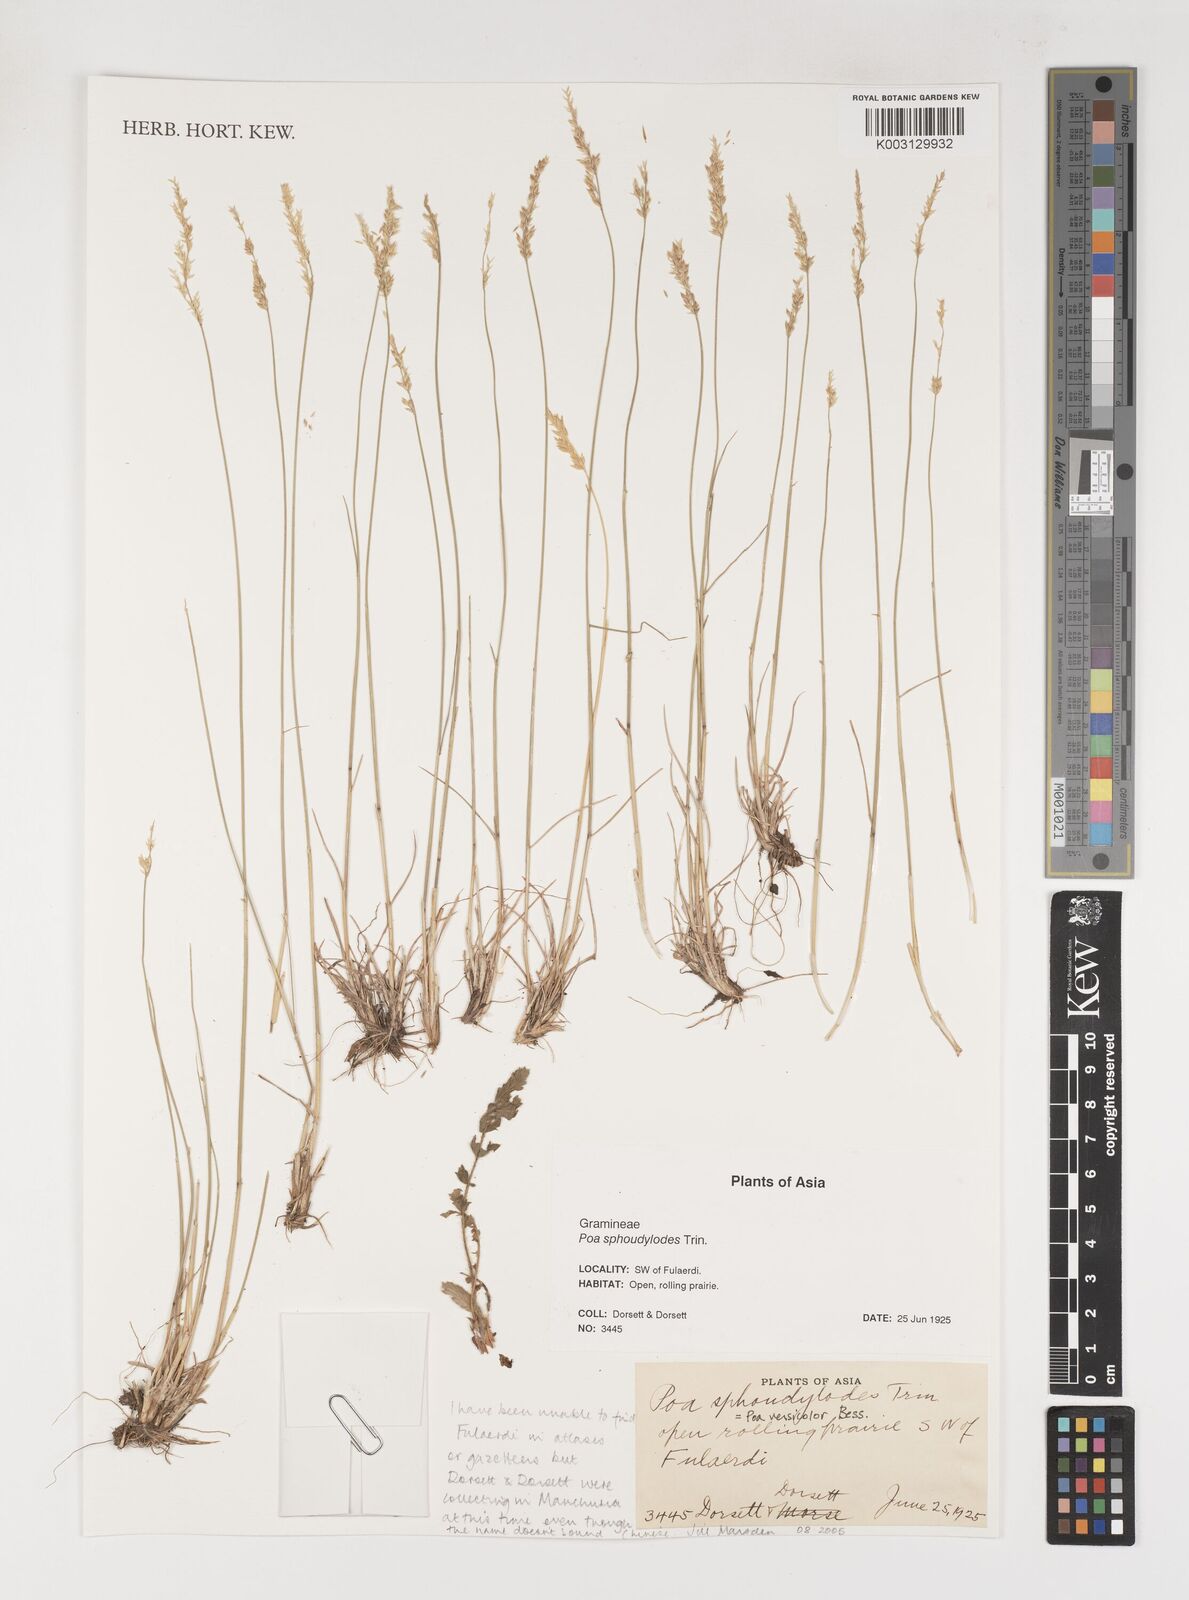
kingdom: Plantae
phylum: Tracheophyta
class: Liliopsida
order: Poales
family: Poaceae
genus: Poa
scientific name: Poa sphondylodes
